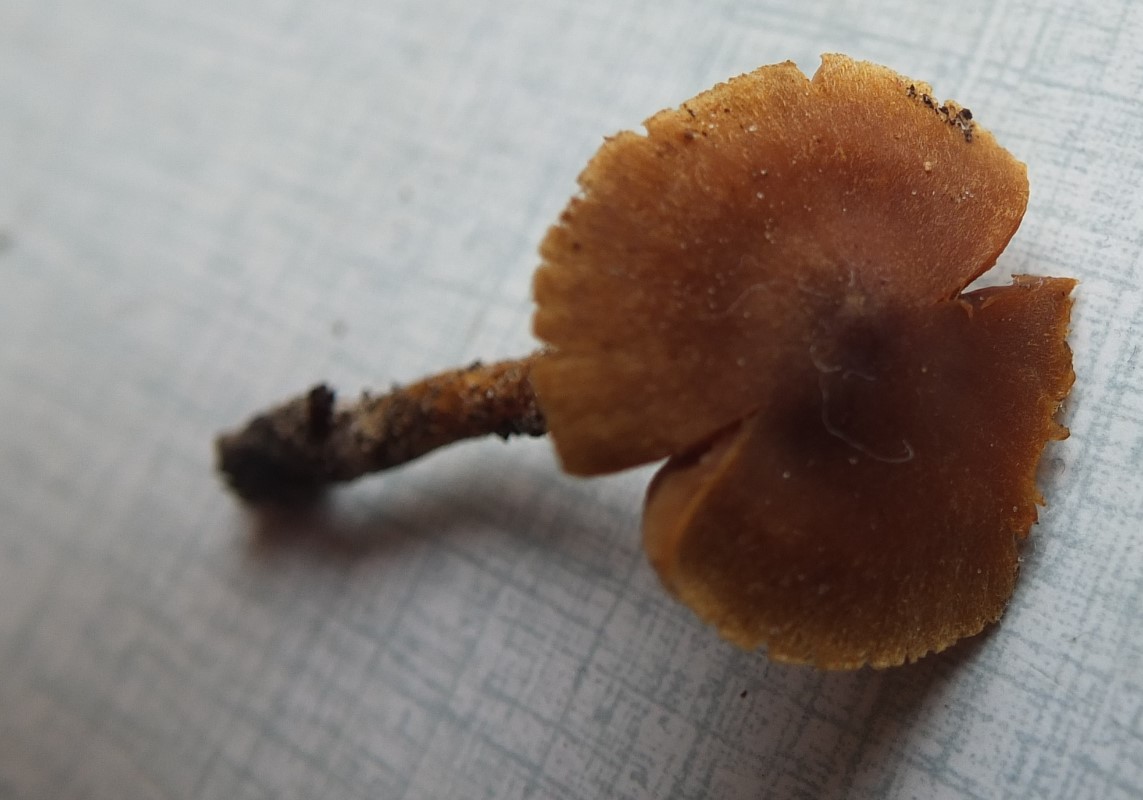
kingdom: Fungi
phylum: Basidiomycota
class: Agaricomycetes
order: Agaricales
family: Cortinariaceae
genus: Cortinarius
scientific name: Cortinarius saniosus
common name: gultrævlet slørhat
